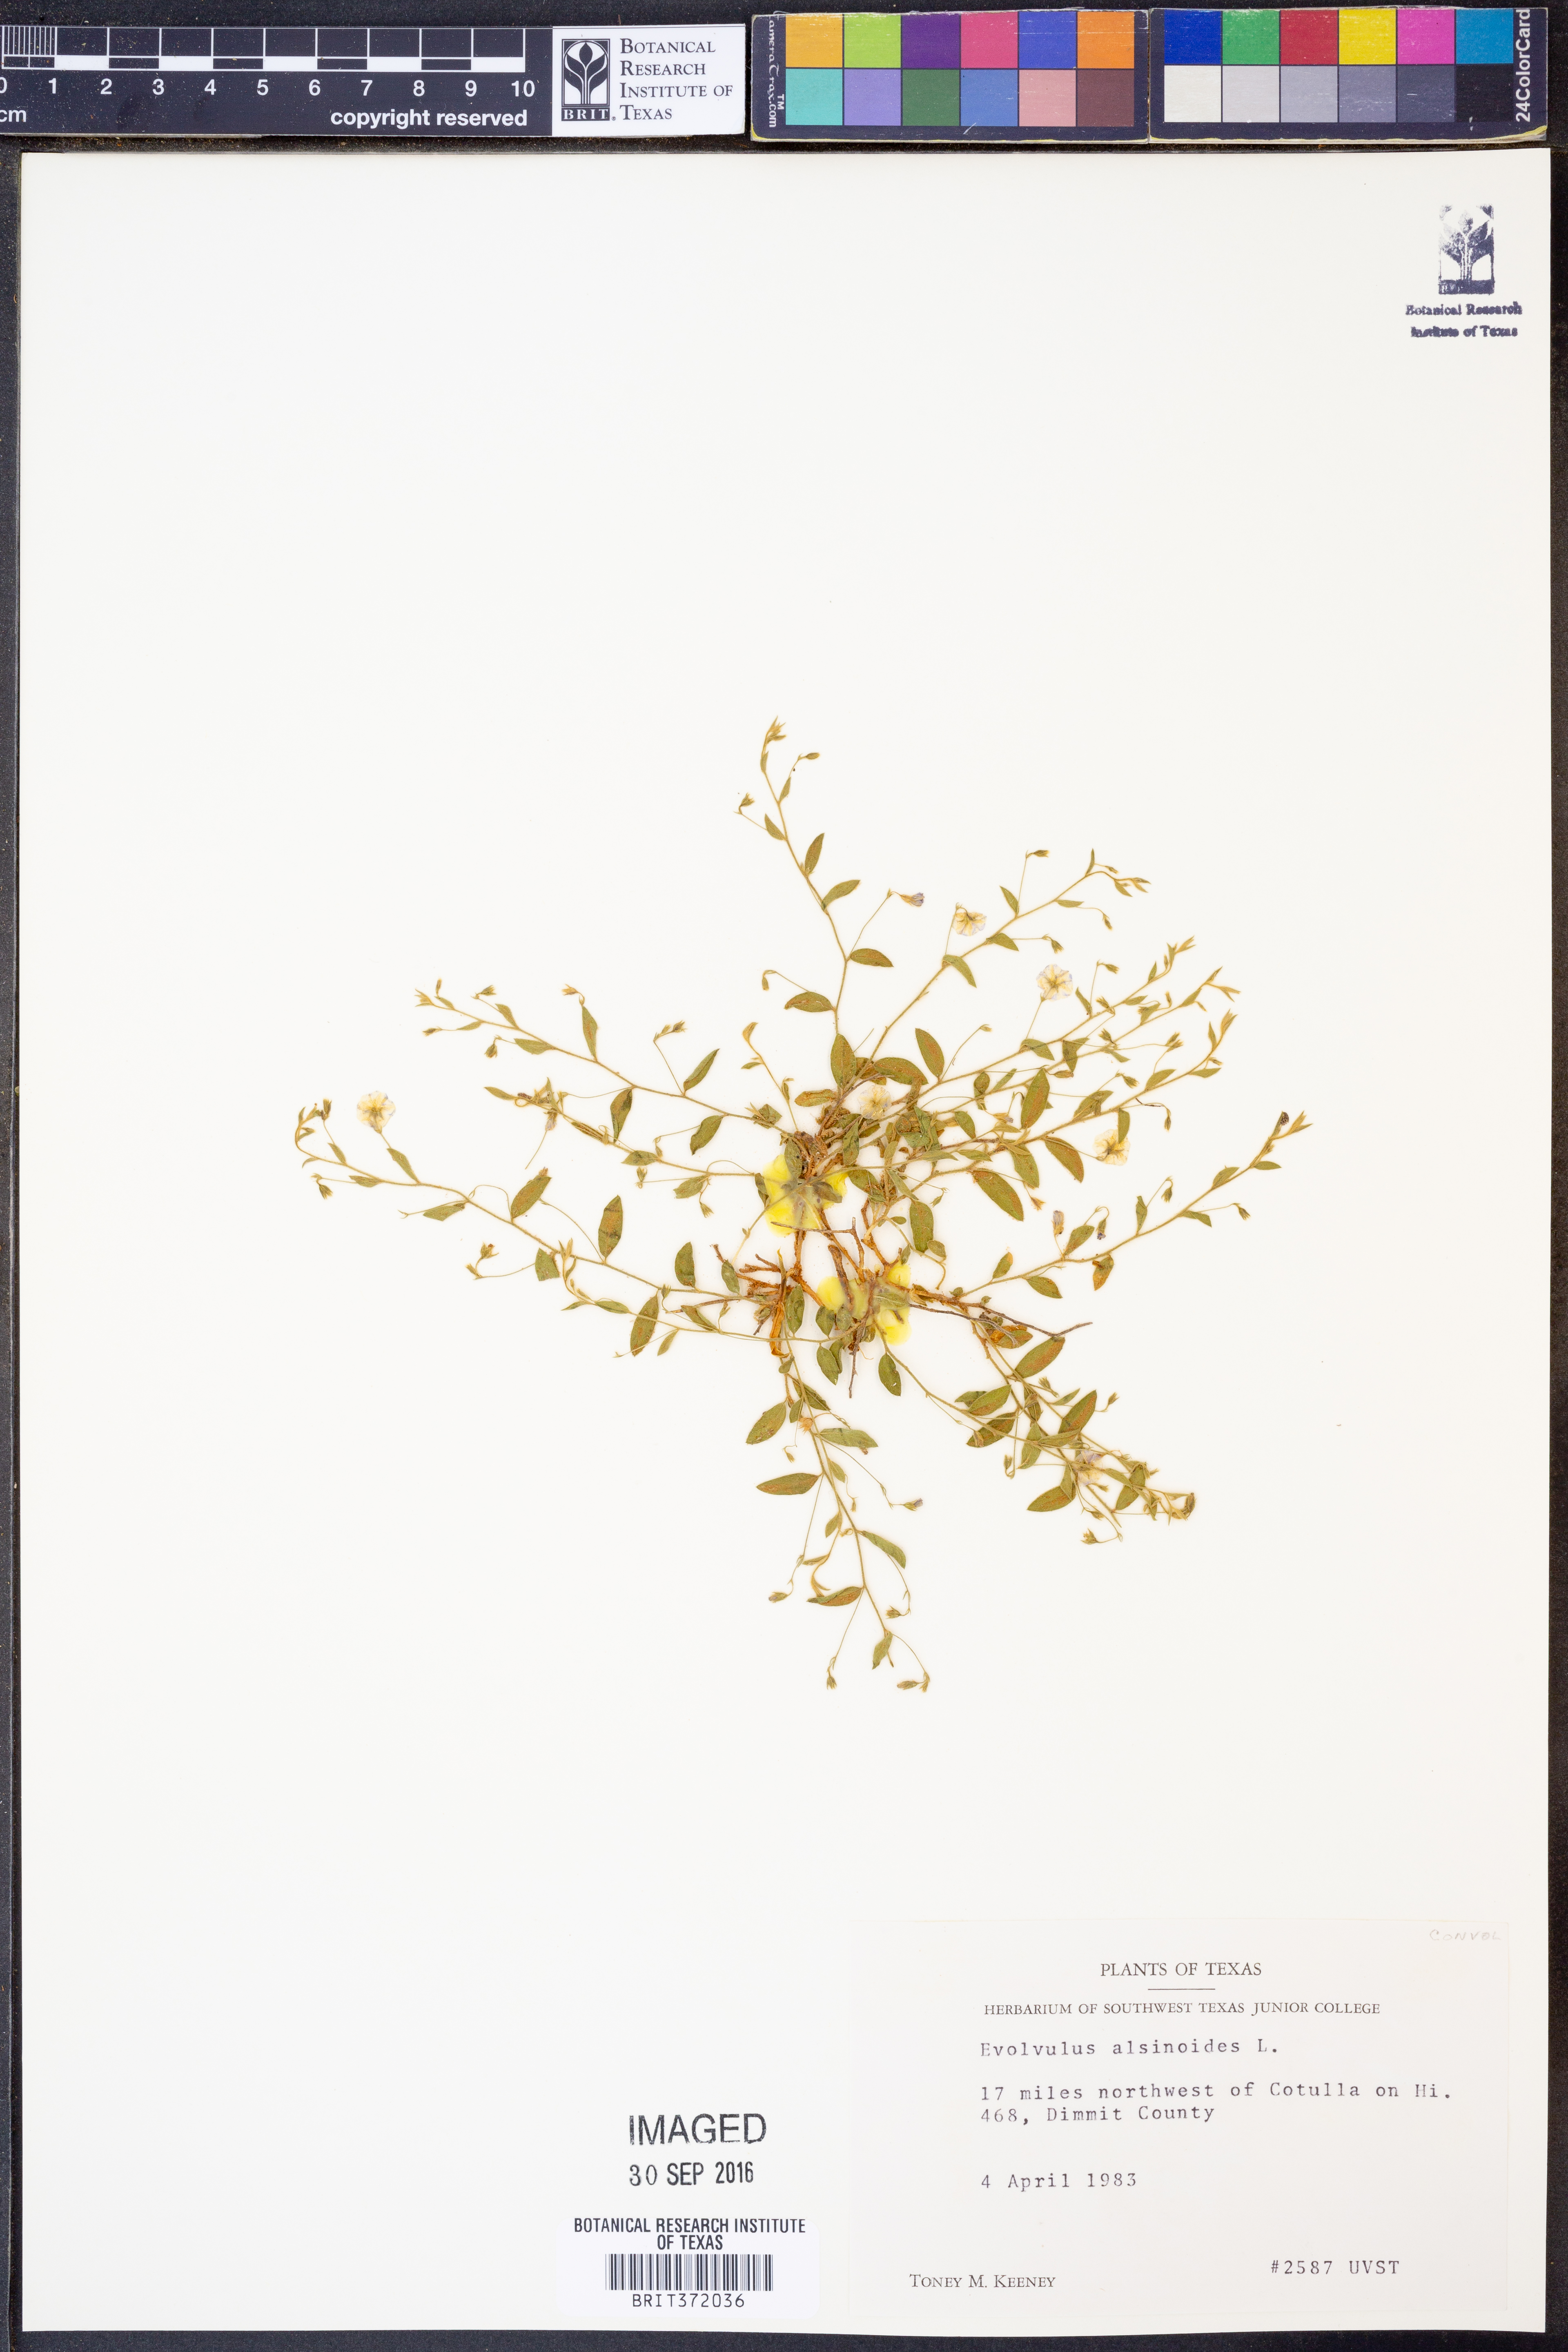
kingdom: Plantae
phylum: Tracheophyta
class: Magnoliopsida
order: Solanales
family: Convolvulaceae
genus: Evolvulus
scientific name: Evolvulus alsinoides
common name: Slender dwarf morning-glory
